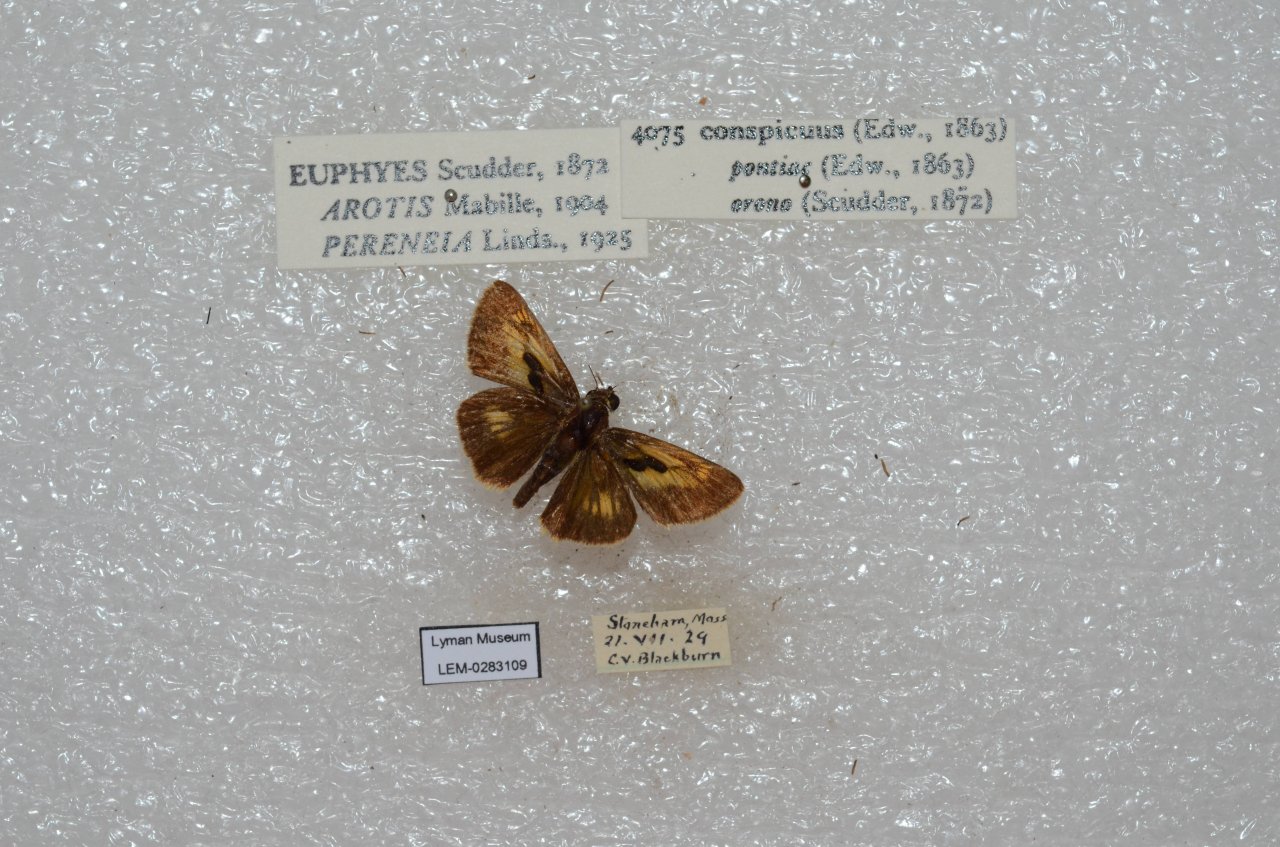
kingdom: Animalia
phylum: Arthropoda
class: Insecta
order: Lepidoptera
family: Hesperiidae
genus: Euphyes
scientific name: Euphyes conspicua
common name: Black Dash
